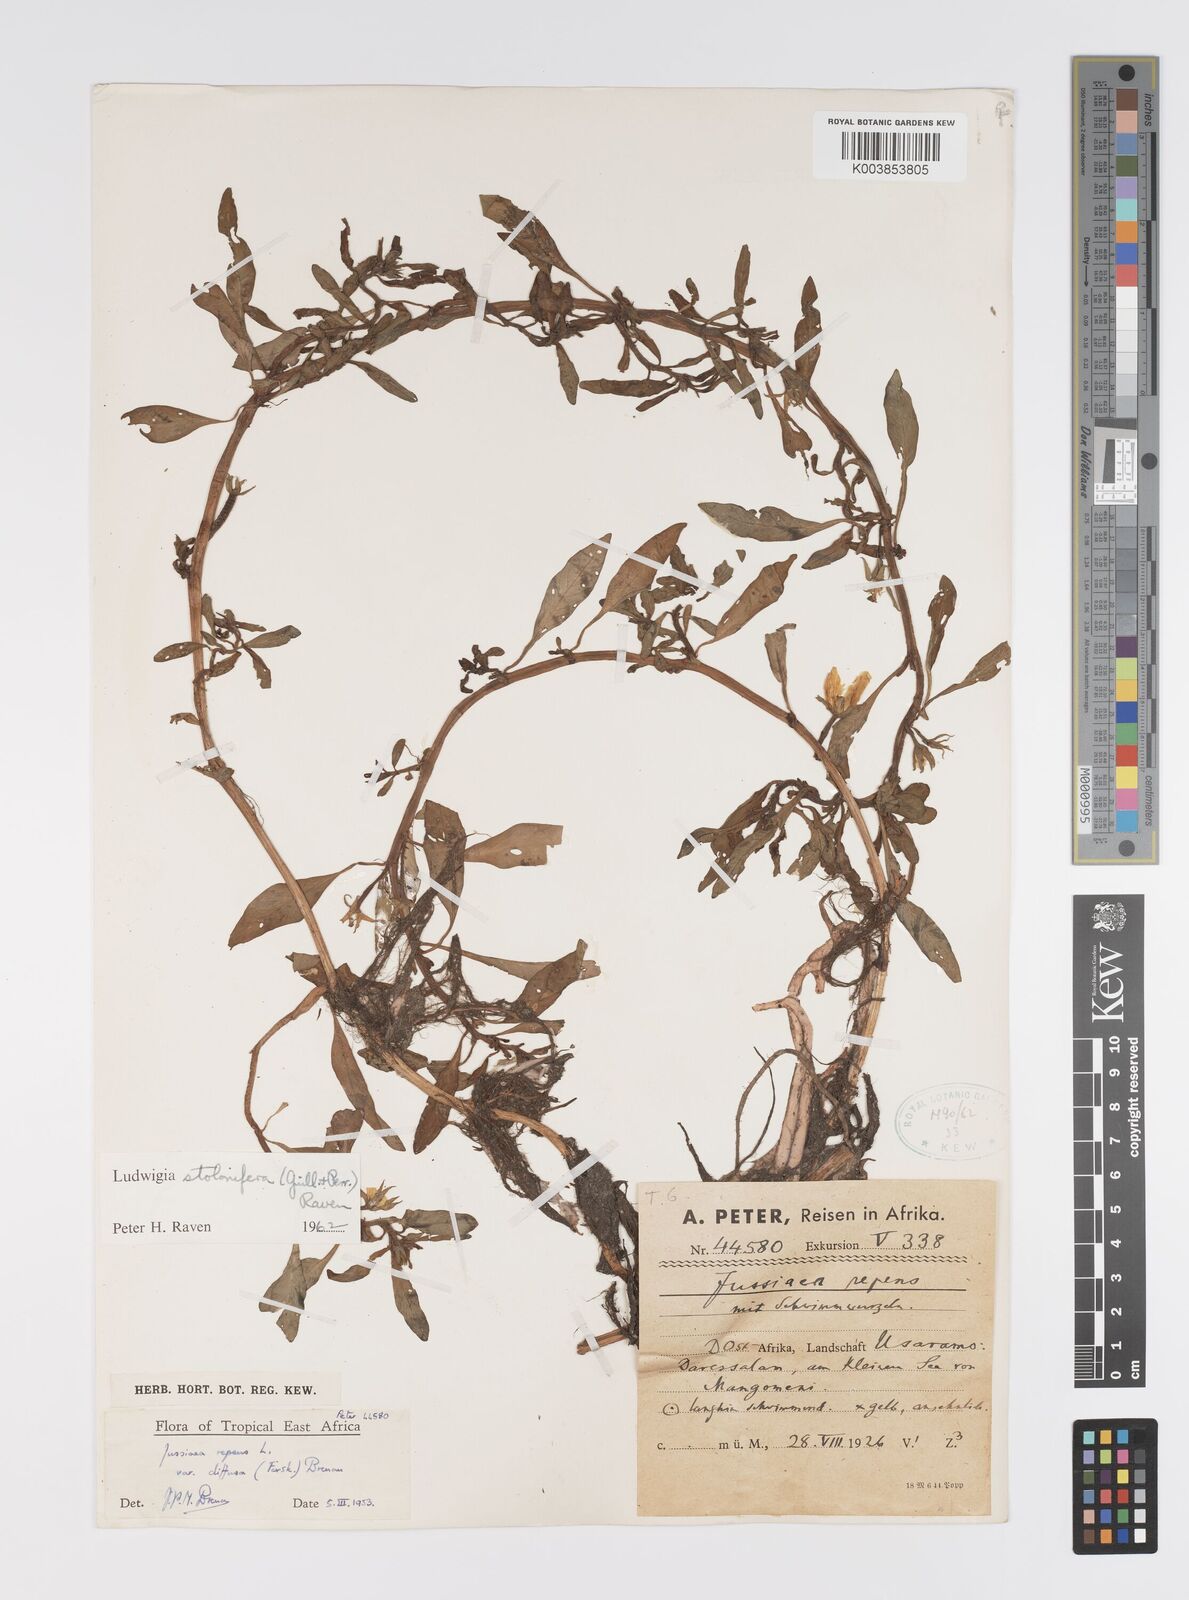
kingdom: Plantae
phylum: Tracheophyta
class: Magnoliopsida
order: Myrtales
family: Onagraceae
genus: Ludwigia
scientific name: Ludwigia adscendens
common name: Creeping water primrose
